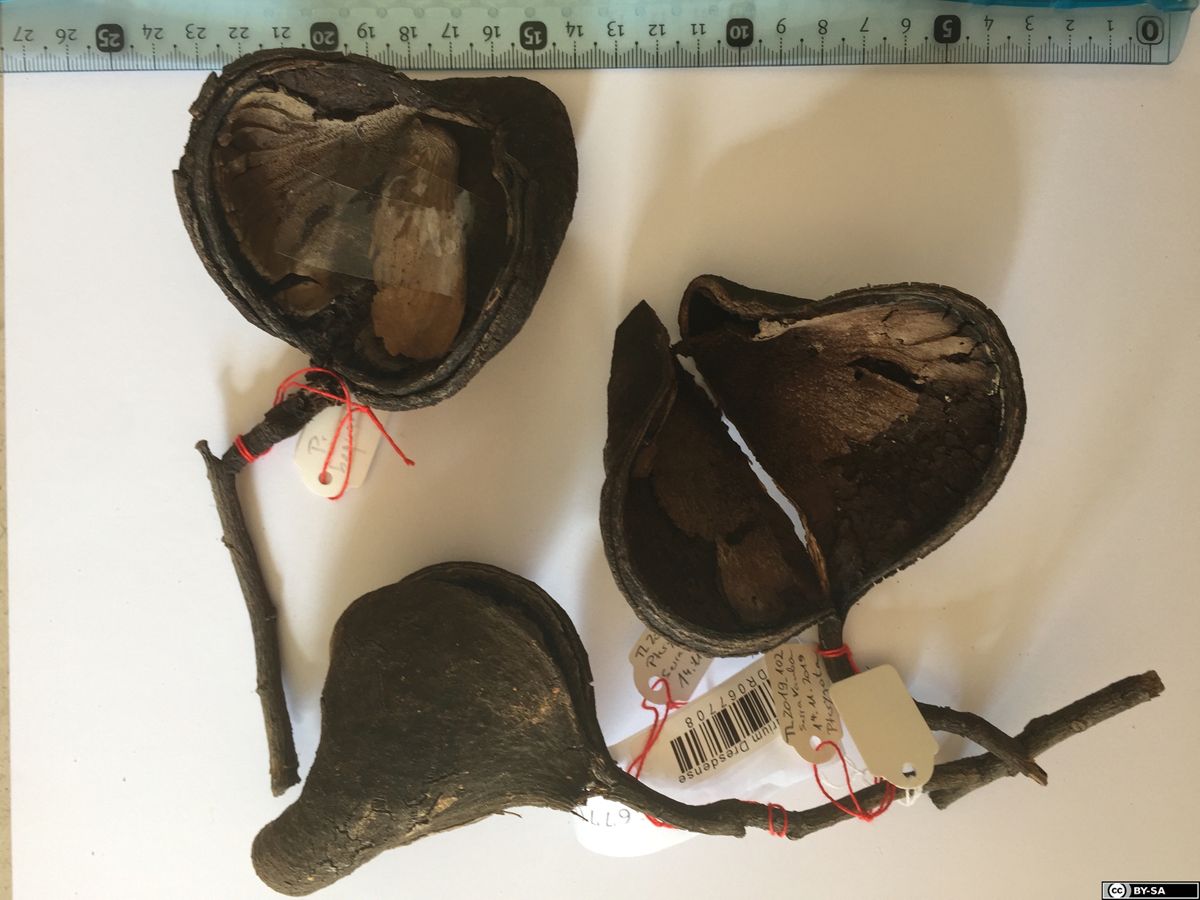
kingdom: Plantae
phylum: Tracheophyta
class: Magnoliopsida
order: Malvales
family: Malvaceae
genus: Pterygota
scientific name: Pterygota bequaertii
